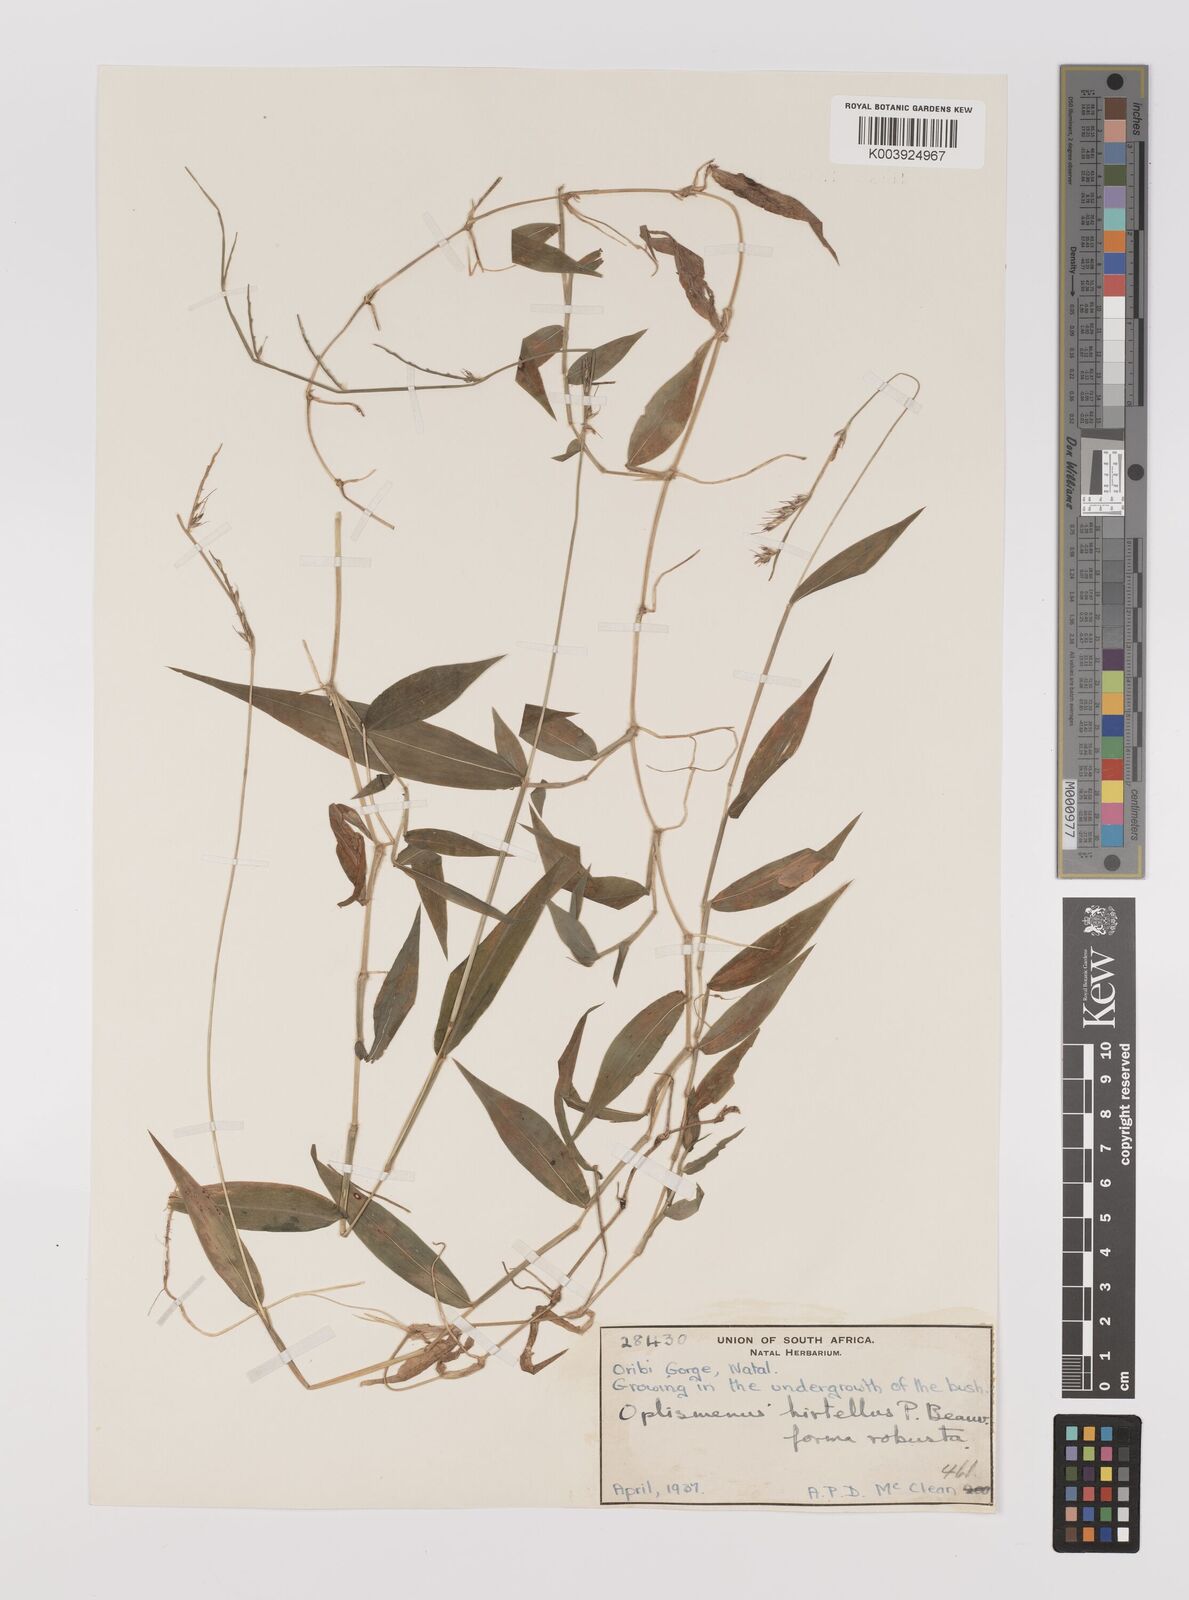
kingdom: Plantae
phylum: Tracheophyta
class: Liliopsida
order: Poales
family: Poaceae
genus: Oplismenus
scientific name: Oplismenus hirtellus
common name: Basketgrass
